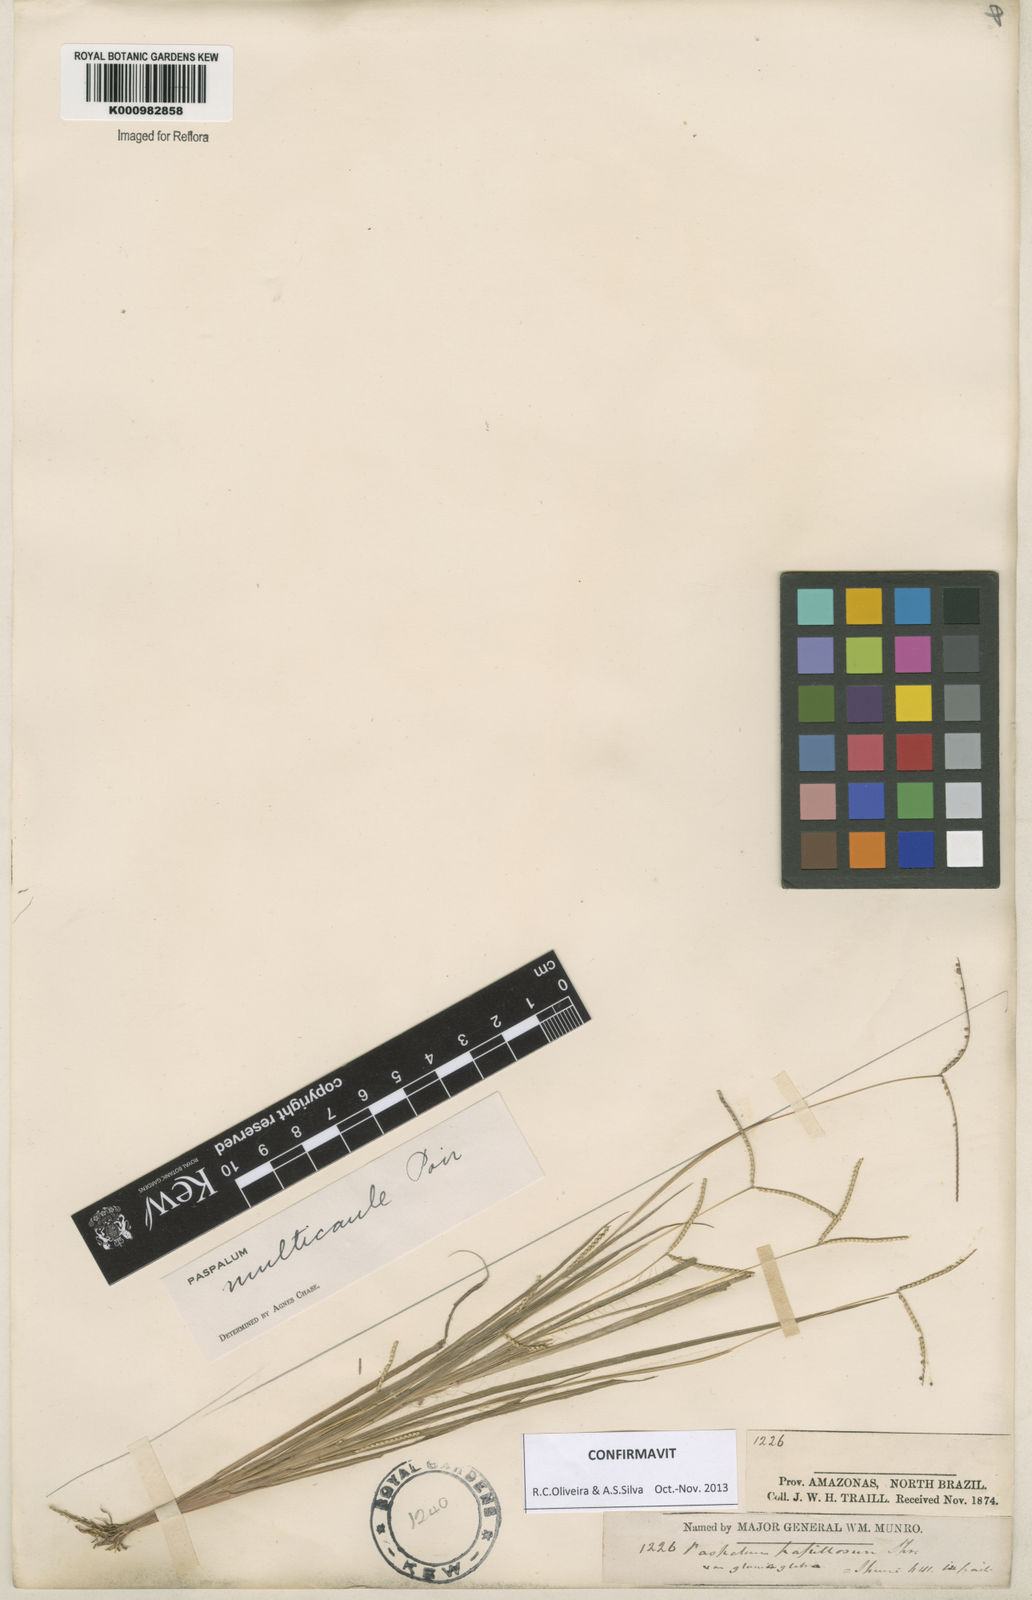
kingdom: Plantae
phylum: Tracheophyta
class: Liliopsida
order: Poales
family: Poaceae
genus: Paspalum
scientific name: Paspalum multicaule
